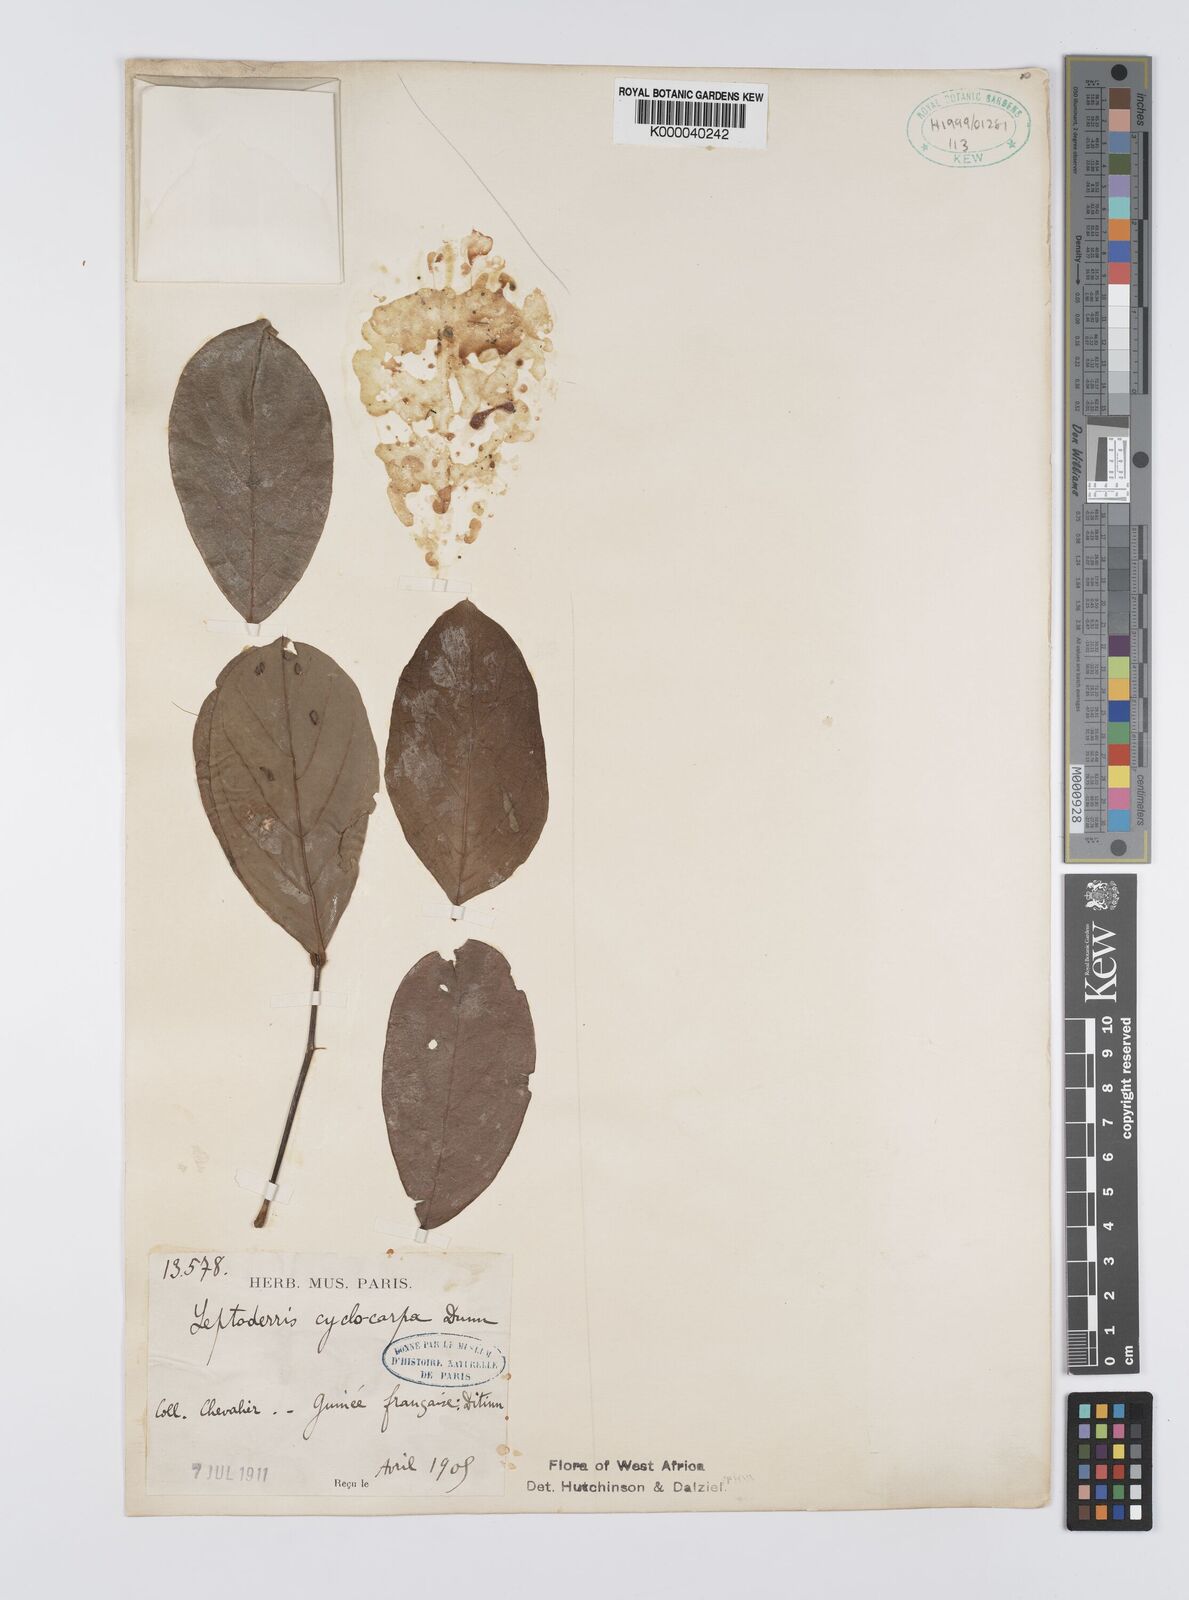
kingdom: Plantae
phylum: Tracheophyta
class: Magnoliopsida
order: Fabales
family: Fabaceae
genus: Leptoderris
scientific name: Leptoderris cyclocarpa
